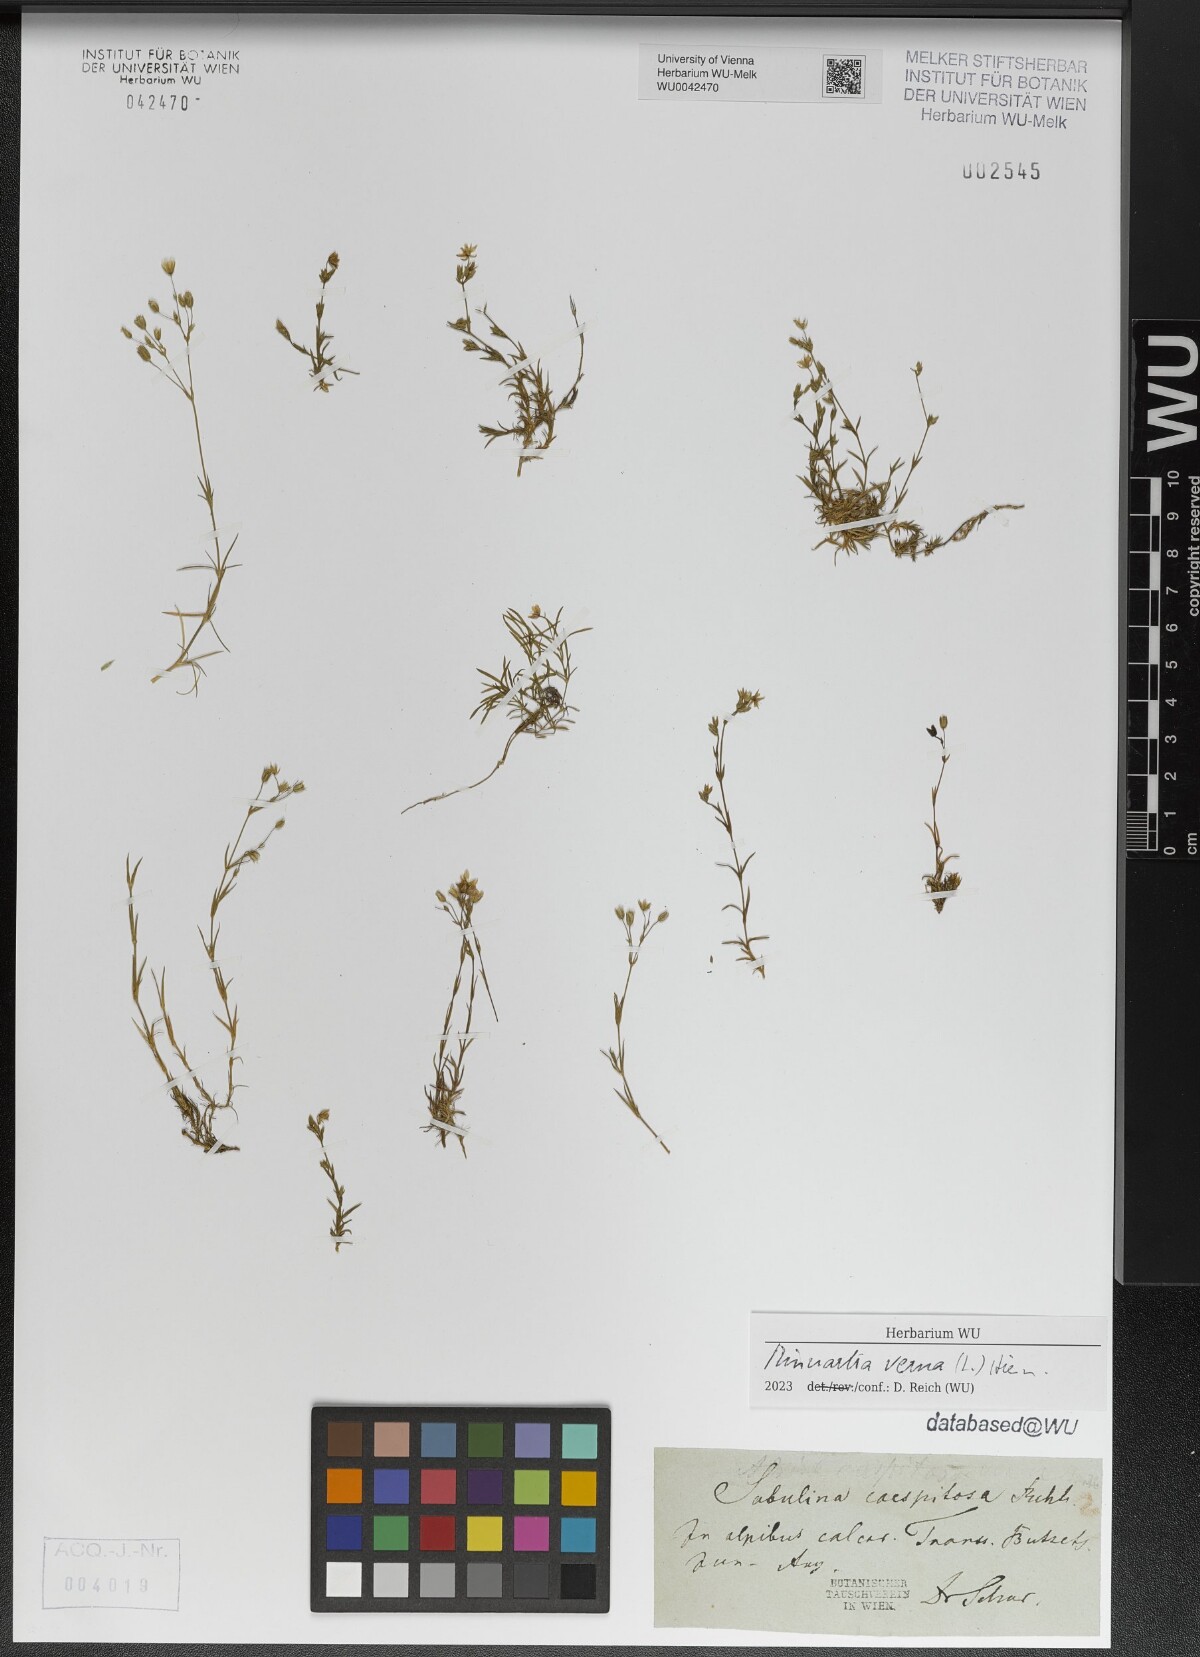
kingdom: Plantae
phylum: Tracheophyta
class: Magnoliopsida
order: Caryophyllales
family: Caryophyllaceae
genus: Sabulina
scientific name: Sabulina verna
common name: Spring sandwort
